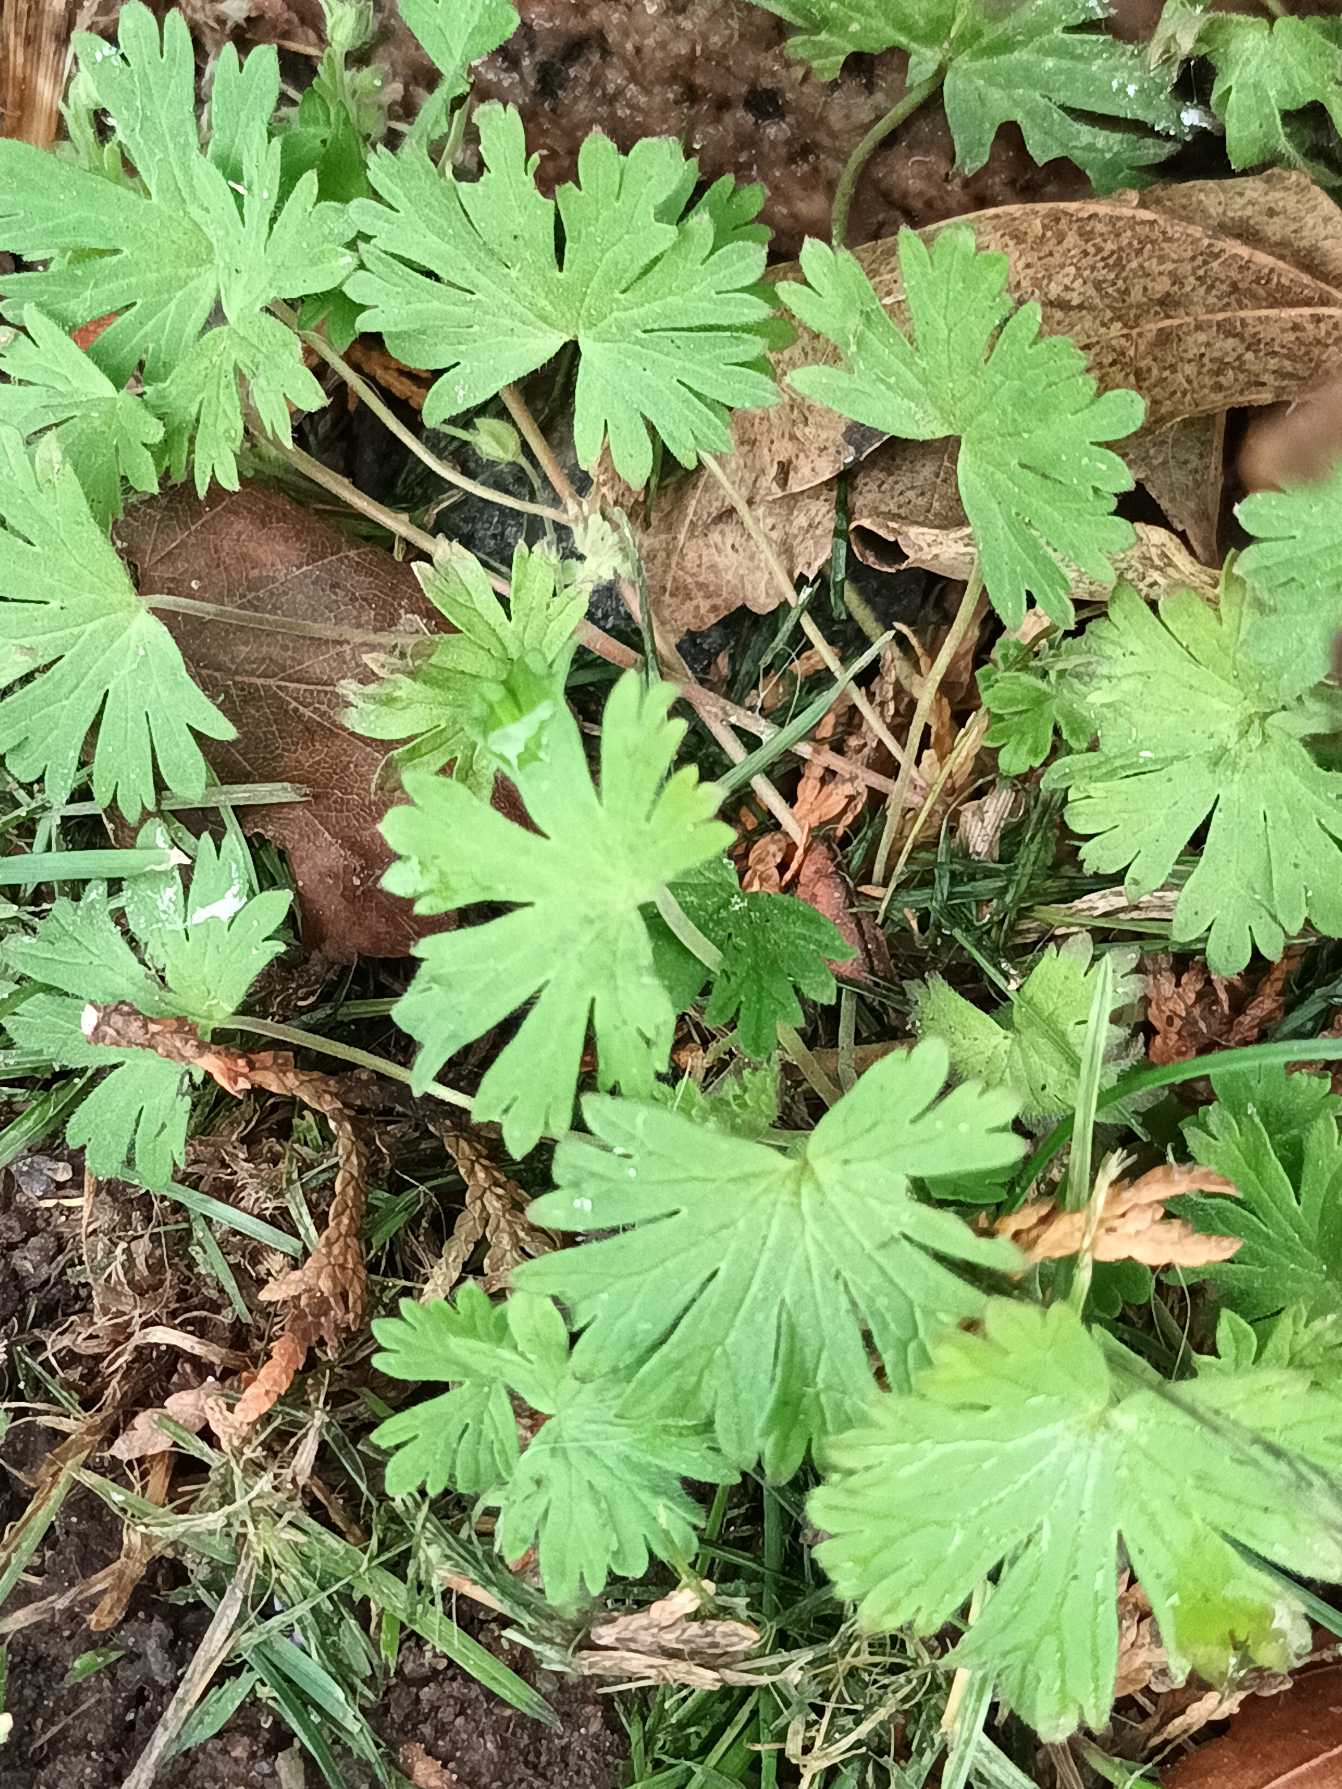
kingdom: Plantae
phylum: Tracheophyta
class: Magnoliopsida
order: Geraniales
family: Geraniaceae
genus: Geranium
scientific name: Geranium pusillum
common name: Liden storkenæb
